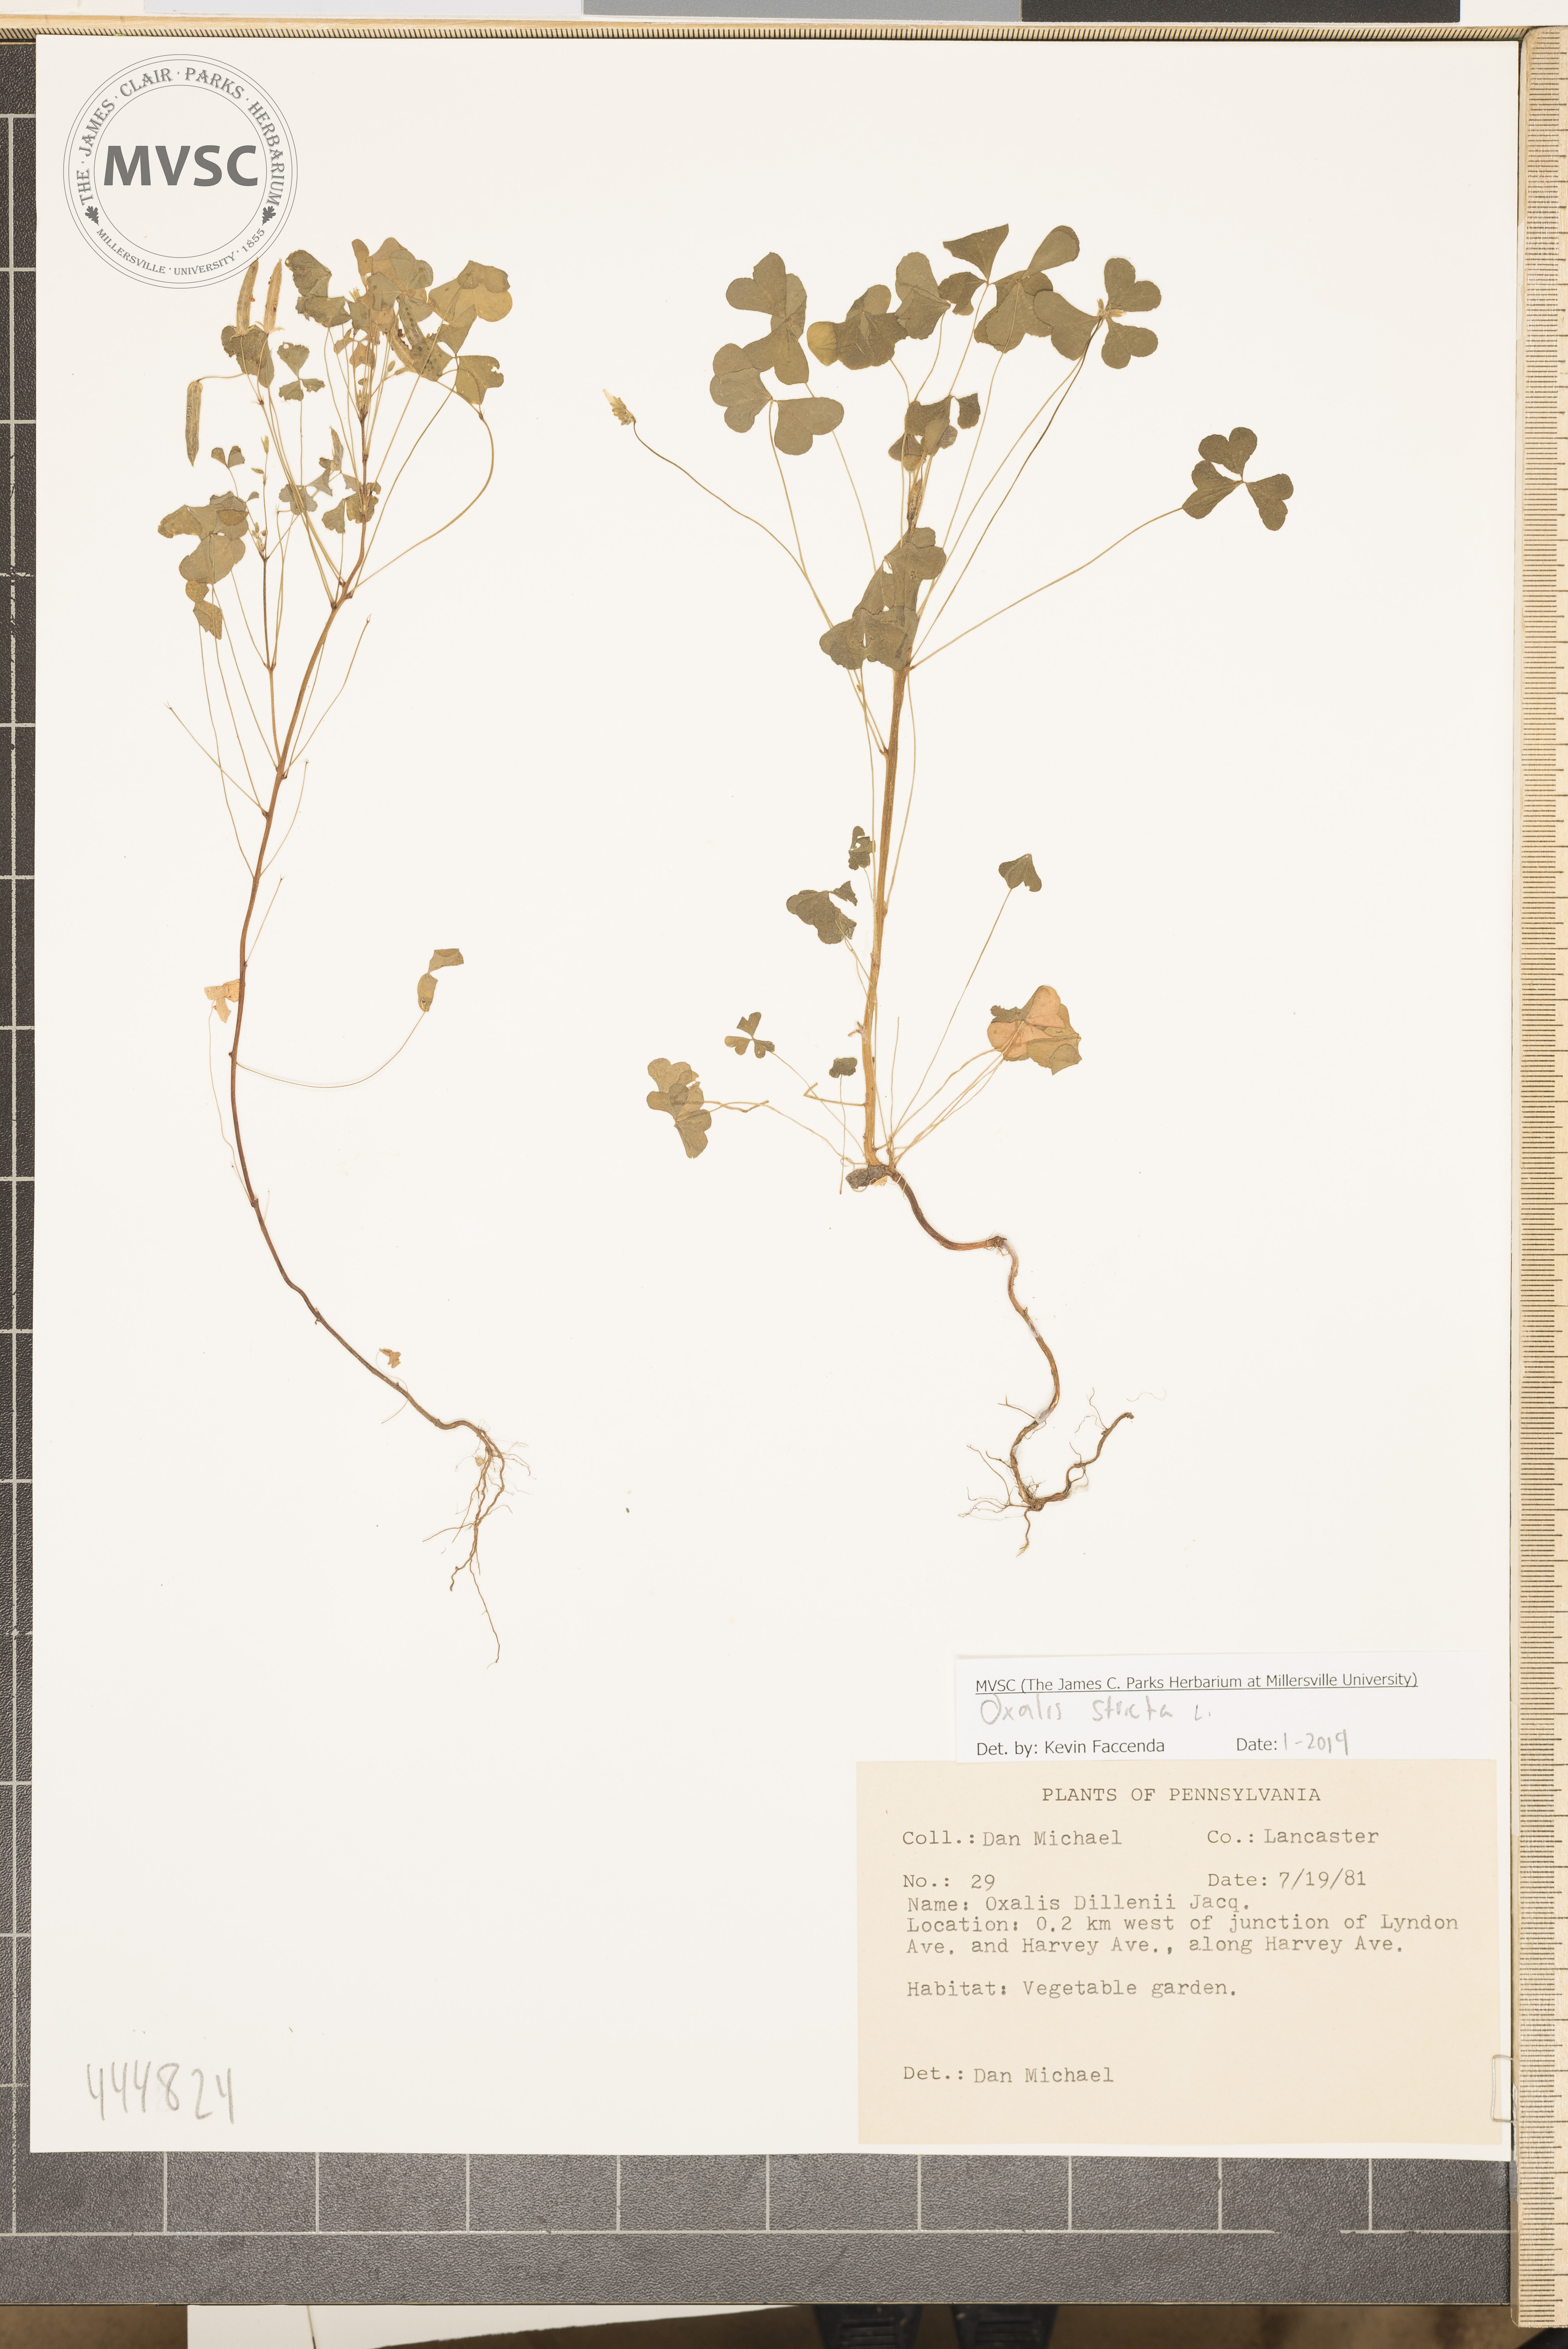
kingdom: Plantae
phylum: Tracheophyta
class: Magnoliopsida
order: Oxalidales
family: Oxalidaceae
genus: Oxalis
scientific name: Oxalis stricta
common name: Upright yellow-sorrel
